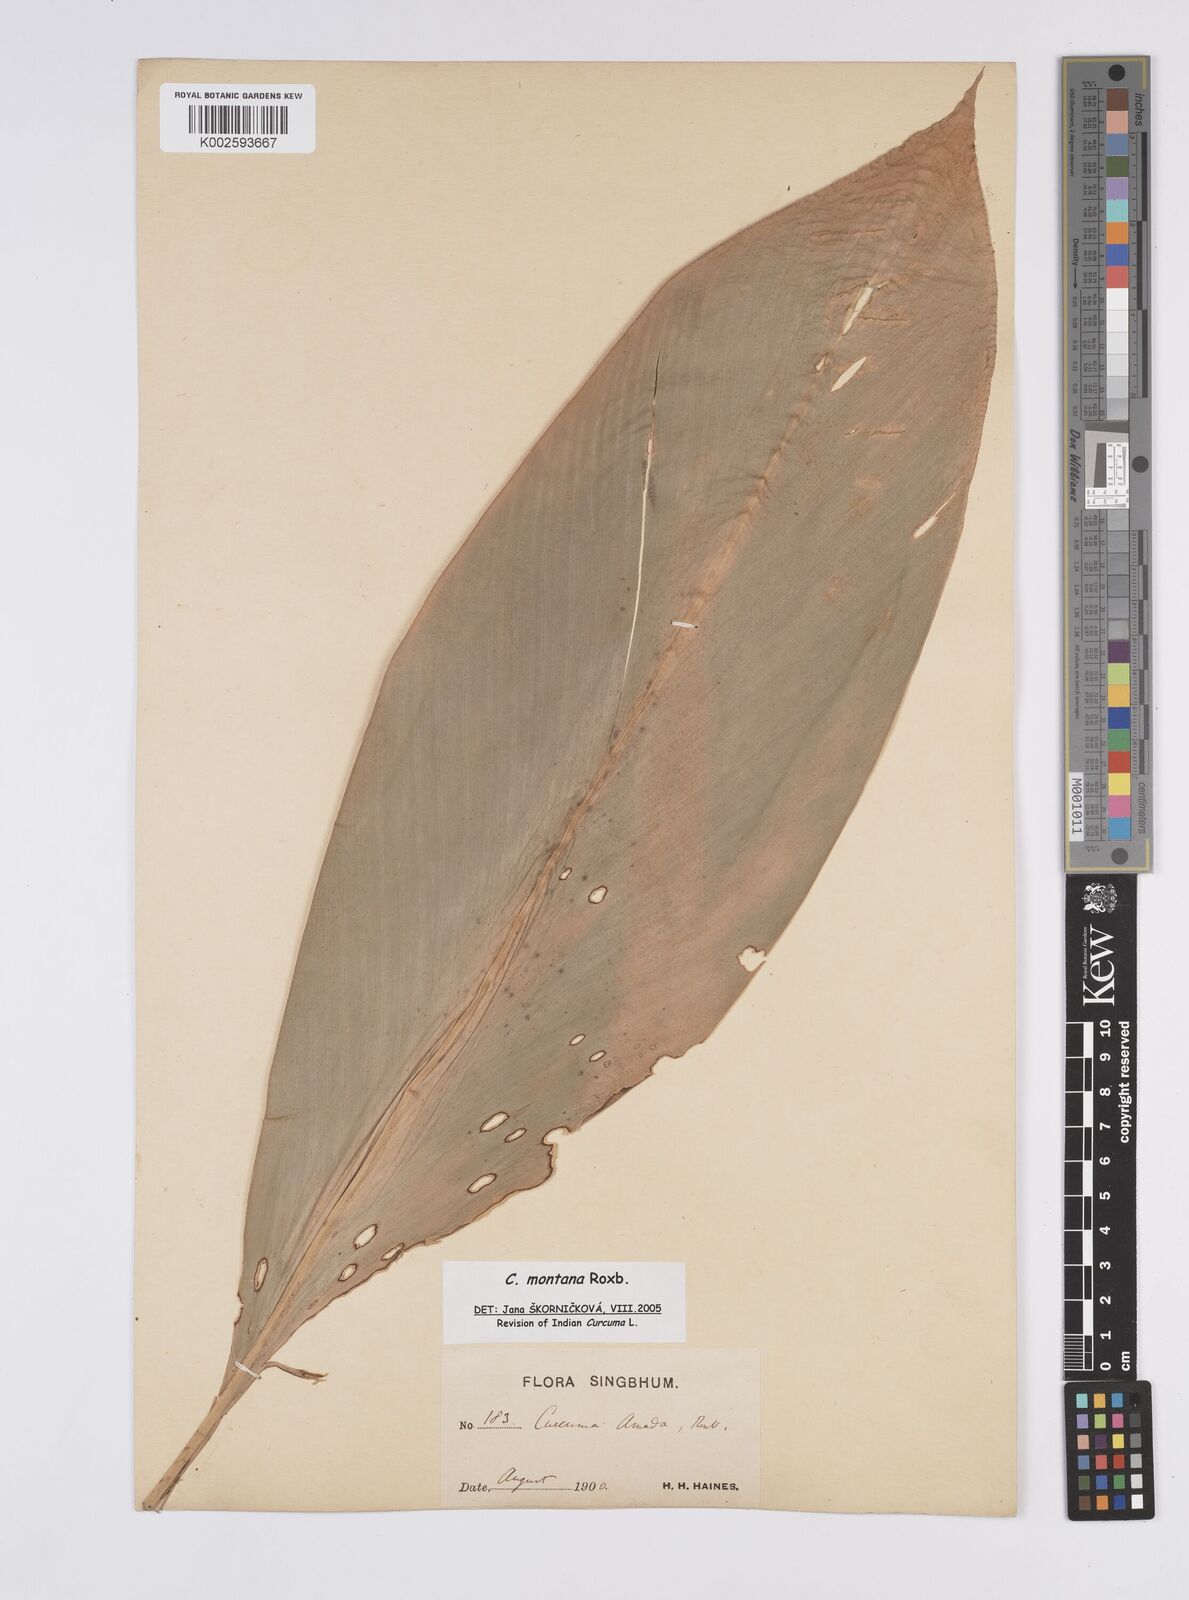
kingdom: Plantae
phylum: Tracheophyta
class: Liliopsida
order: Zingiberales
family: Zingiberaceae
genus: Curcuma
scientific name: Curcuma montana
